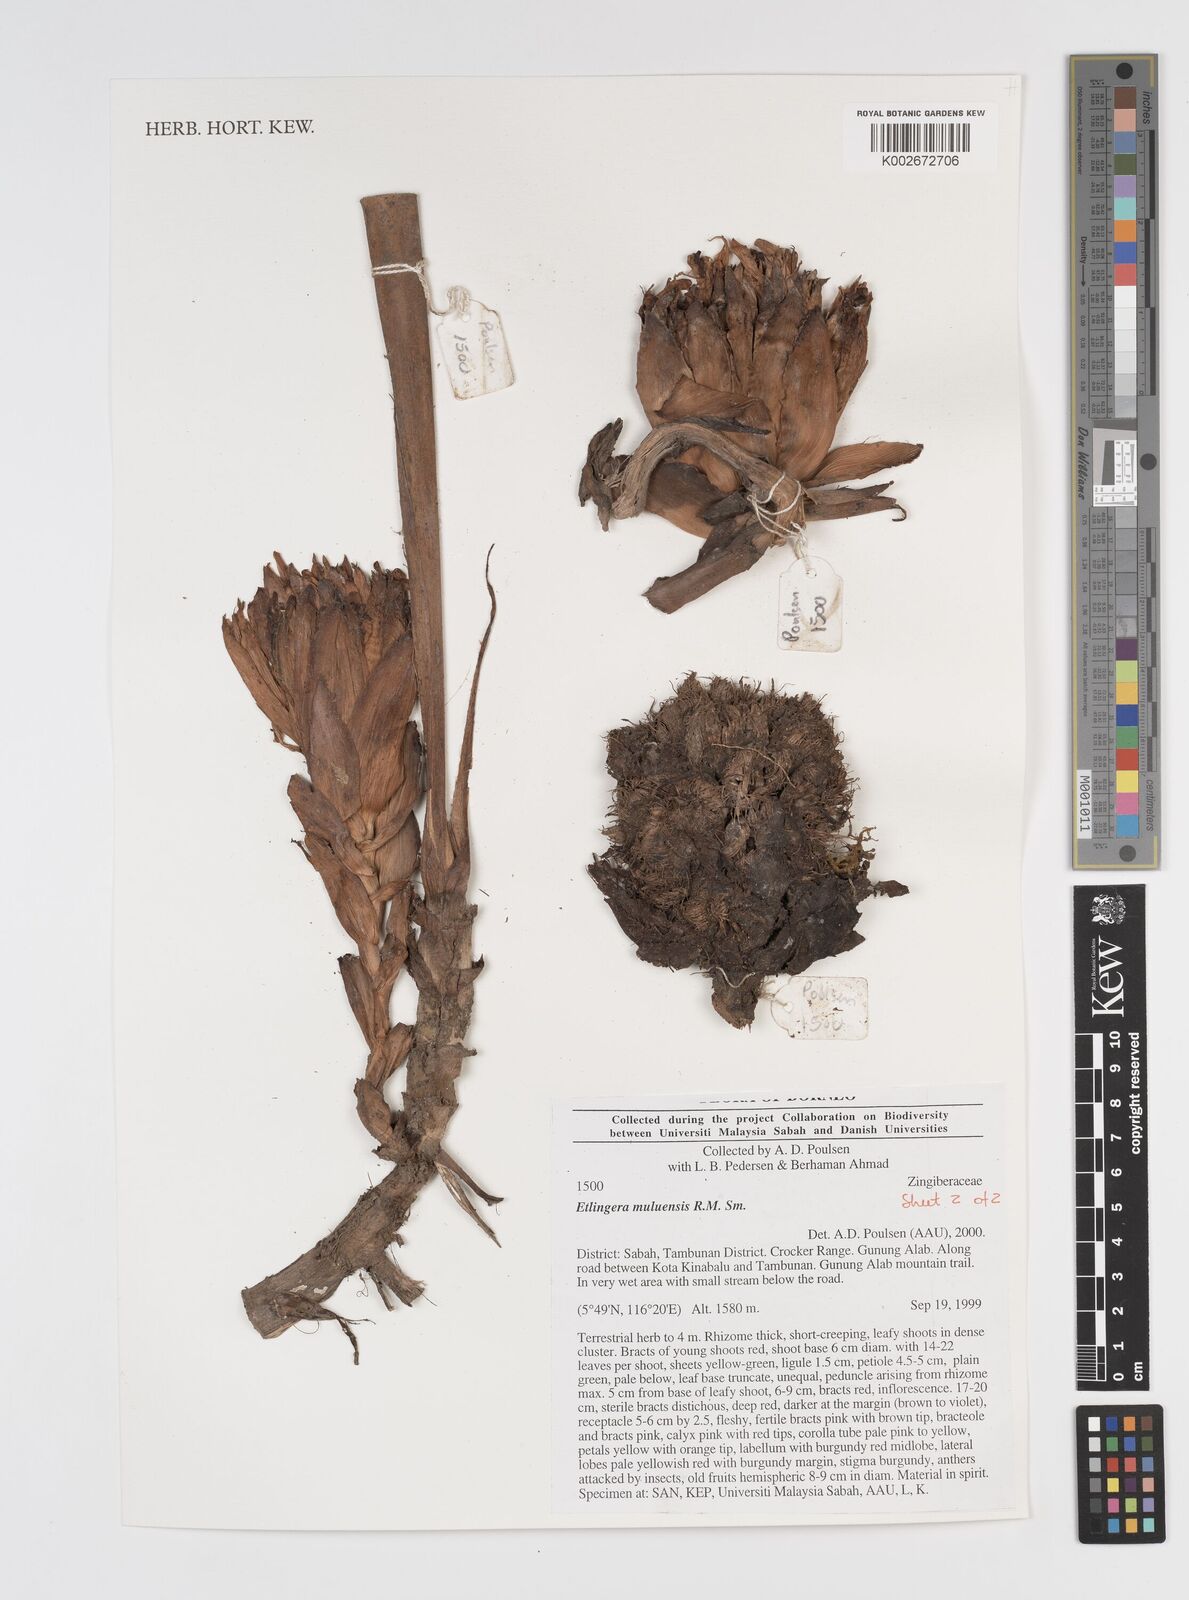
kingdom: Plantae
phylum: Tracheophyta
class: Liliopsida
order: Zingiberales
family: Zingiberaceae
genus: Etlingera
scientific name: Etlingera pubescens
